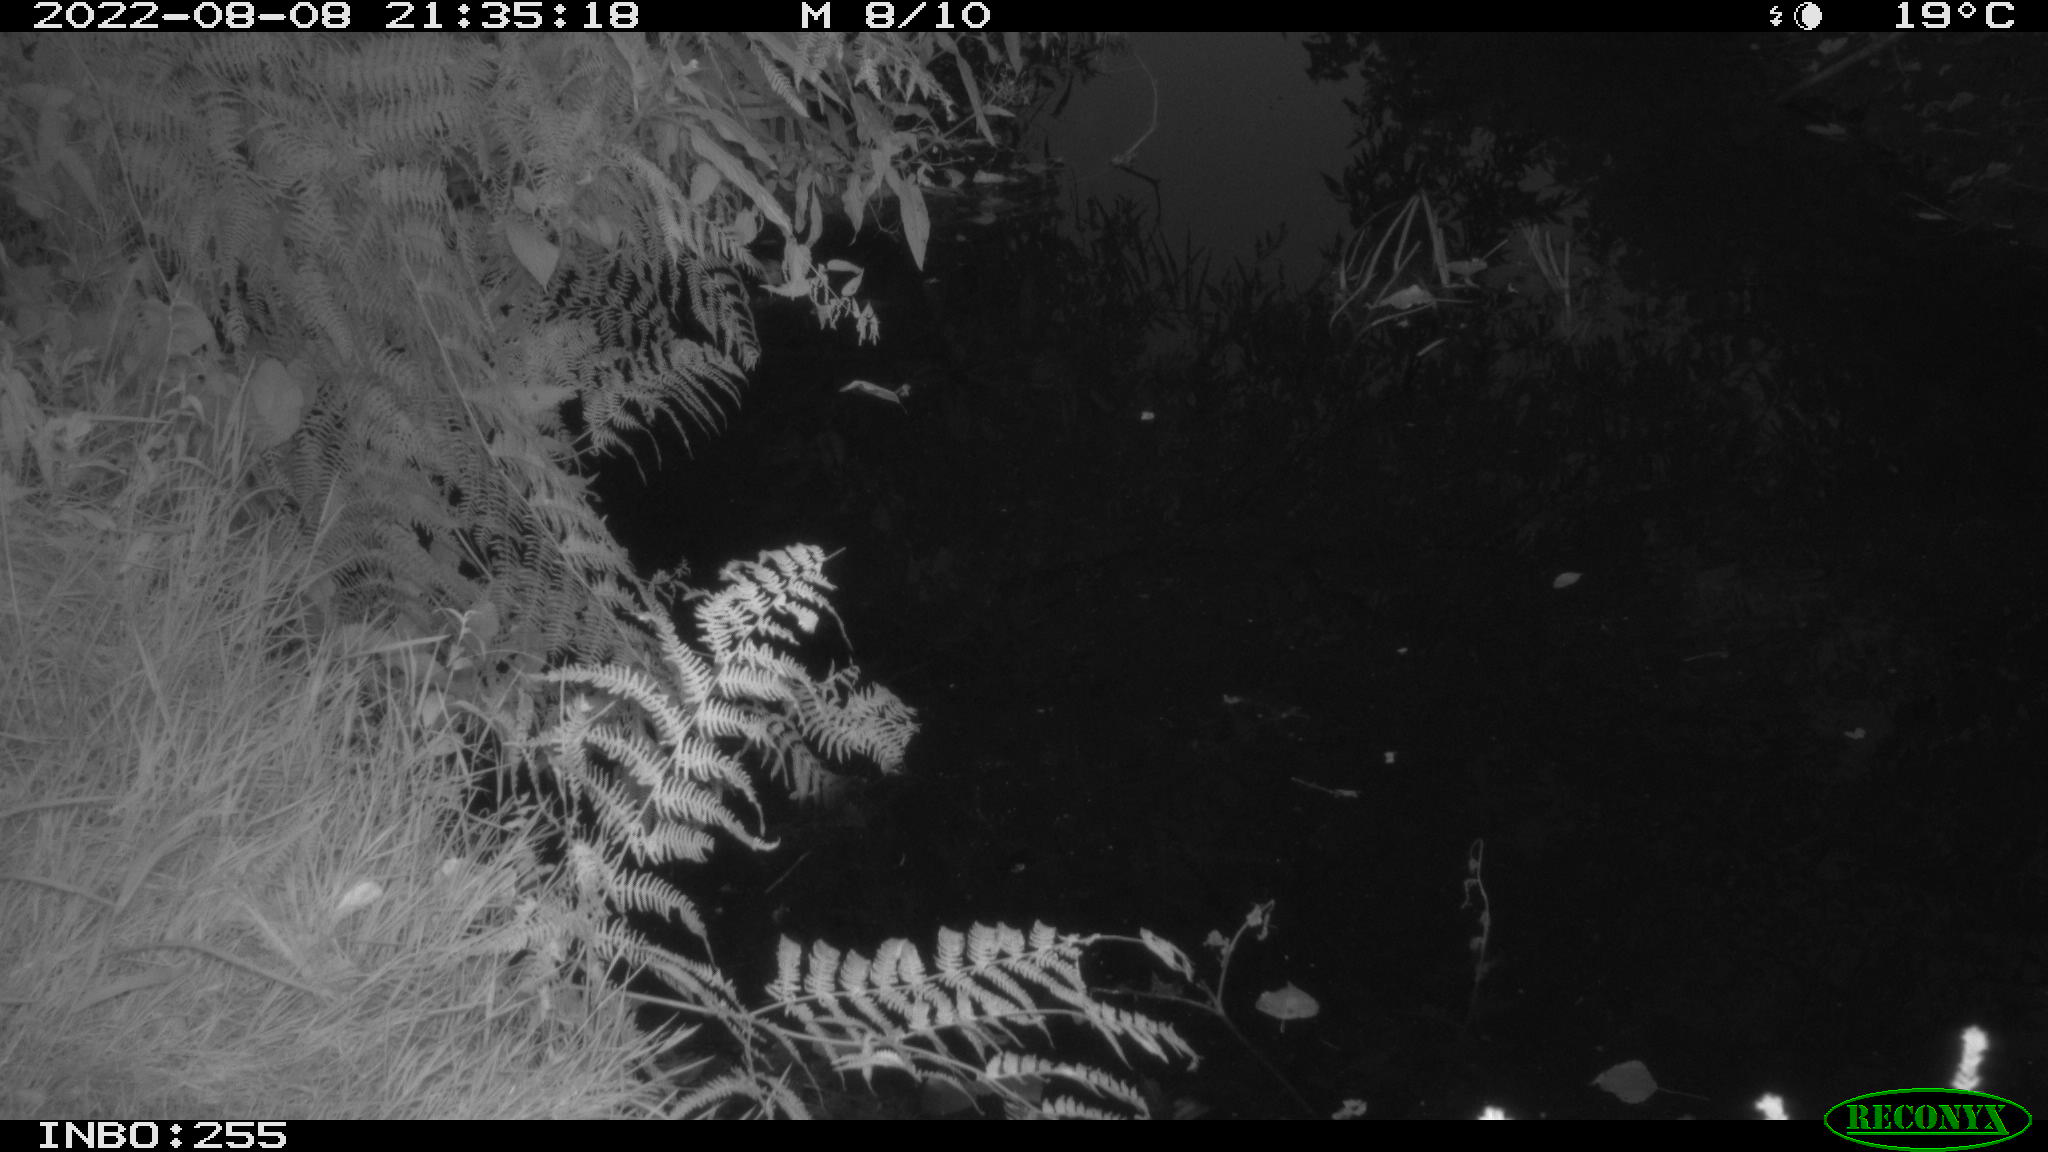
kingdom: Animalia
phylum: Chordata
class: Aves
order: Pelecaniformes
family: Ardeidae
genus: Ardea
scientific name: Ardea cinerea
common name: Grey heron
